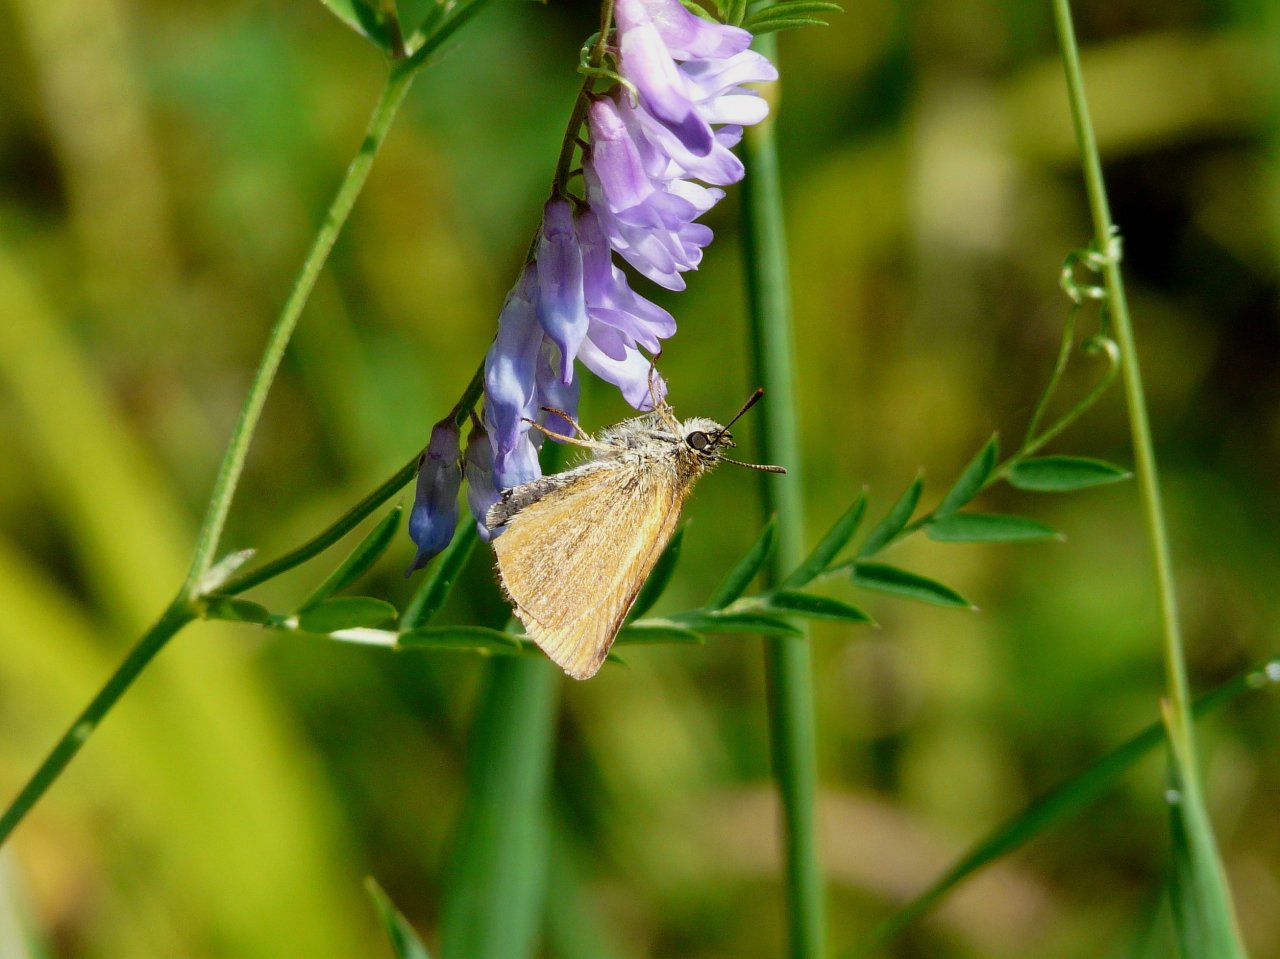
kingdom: Animalia
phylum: Arthropoda
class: Insecta
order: Lepidoptera
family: Hesperiidae
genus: Thymelicus
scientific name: Thymelicus lineola
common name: European Skipper
